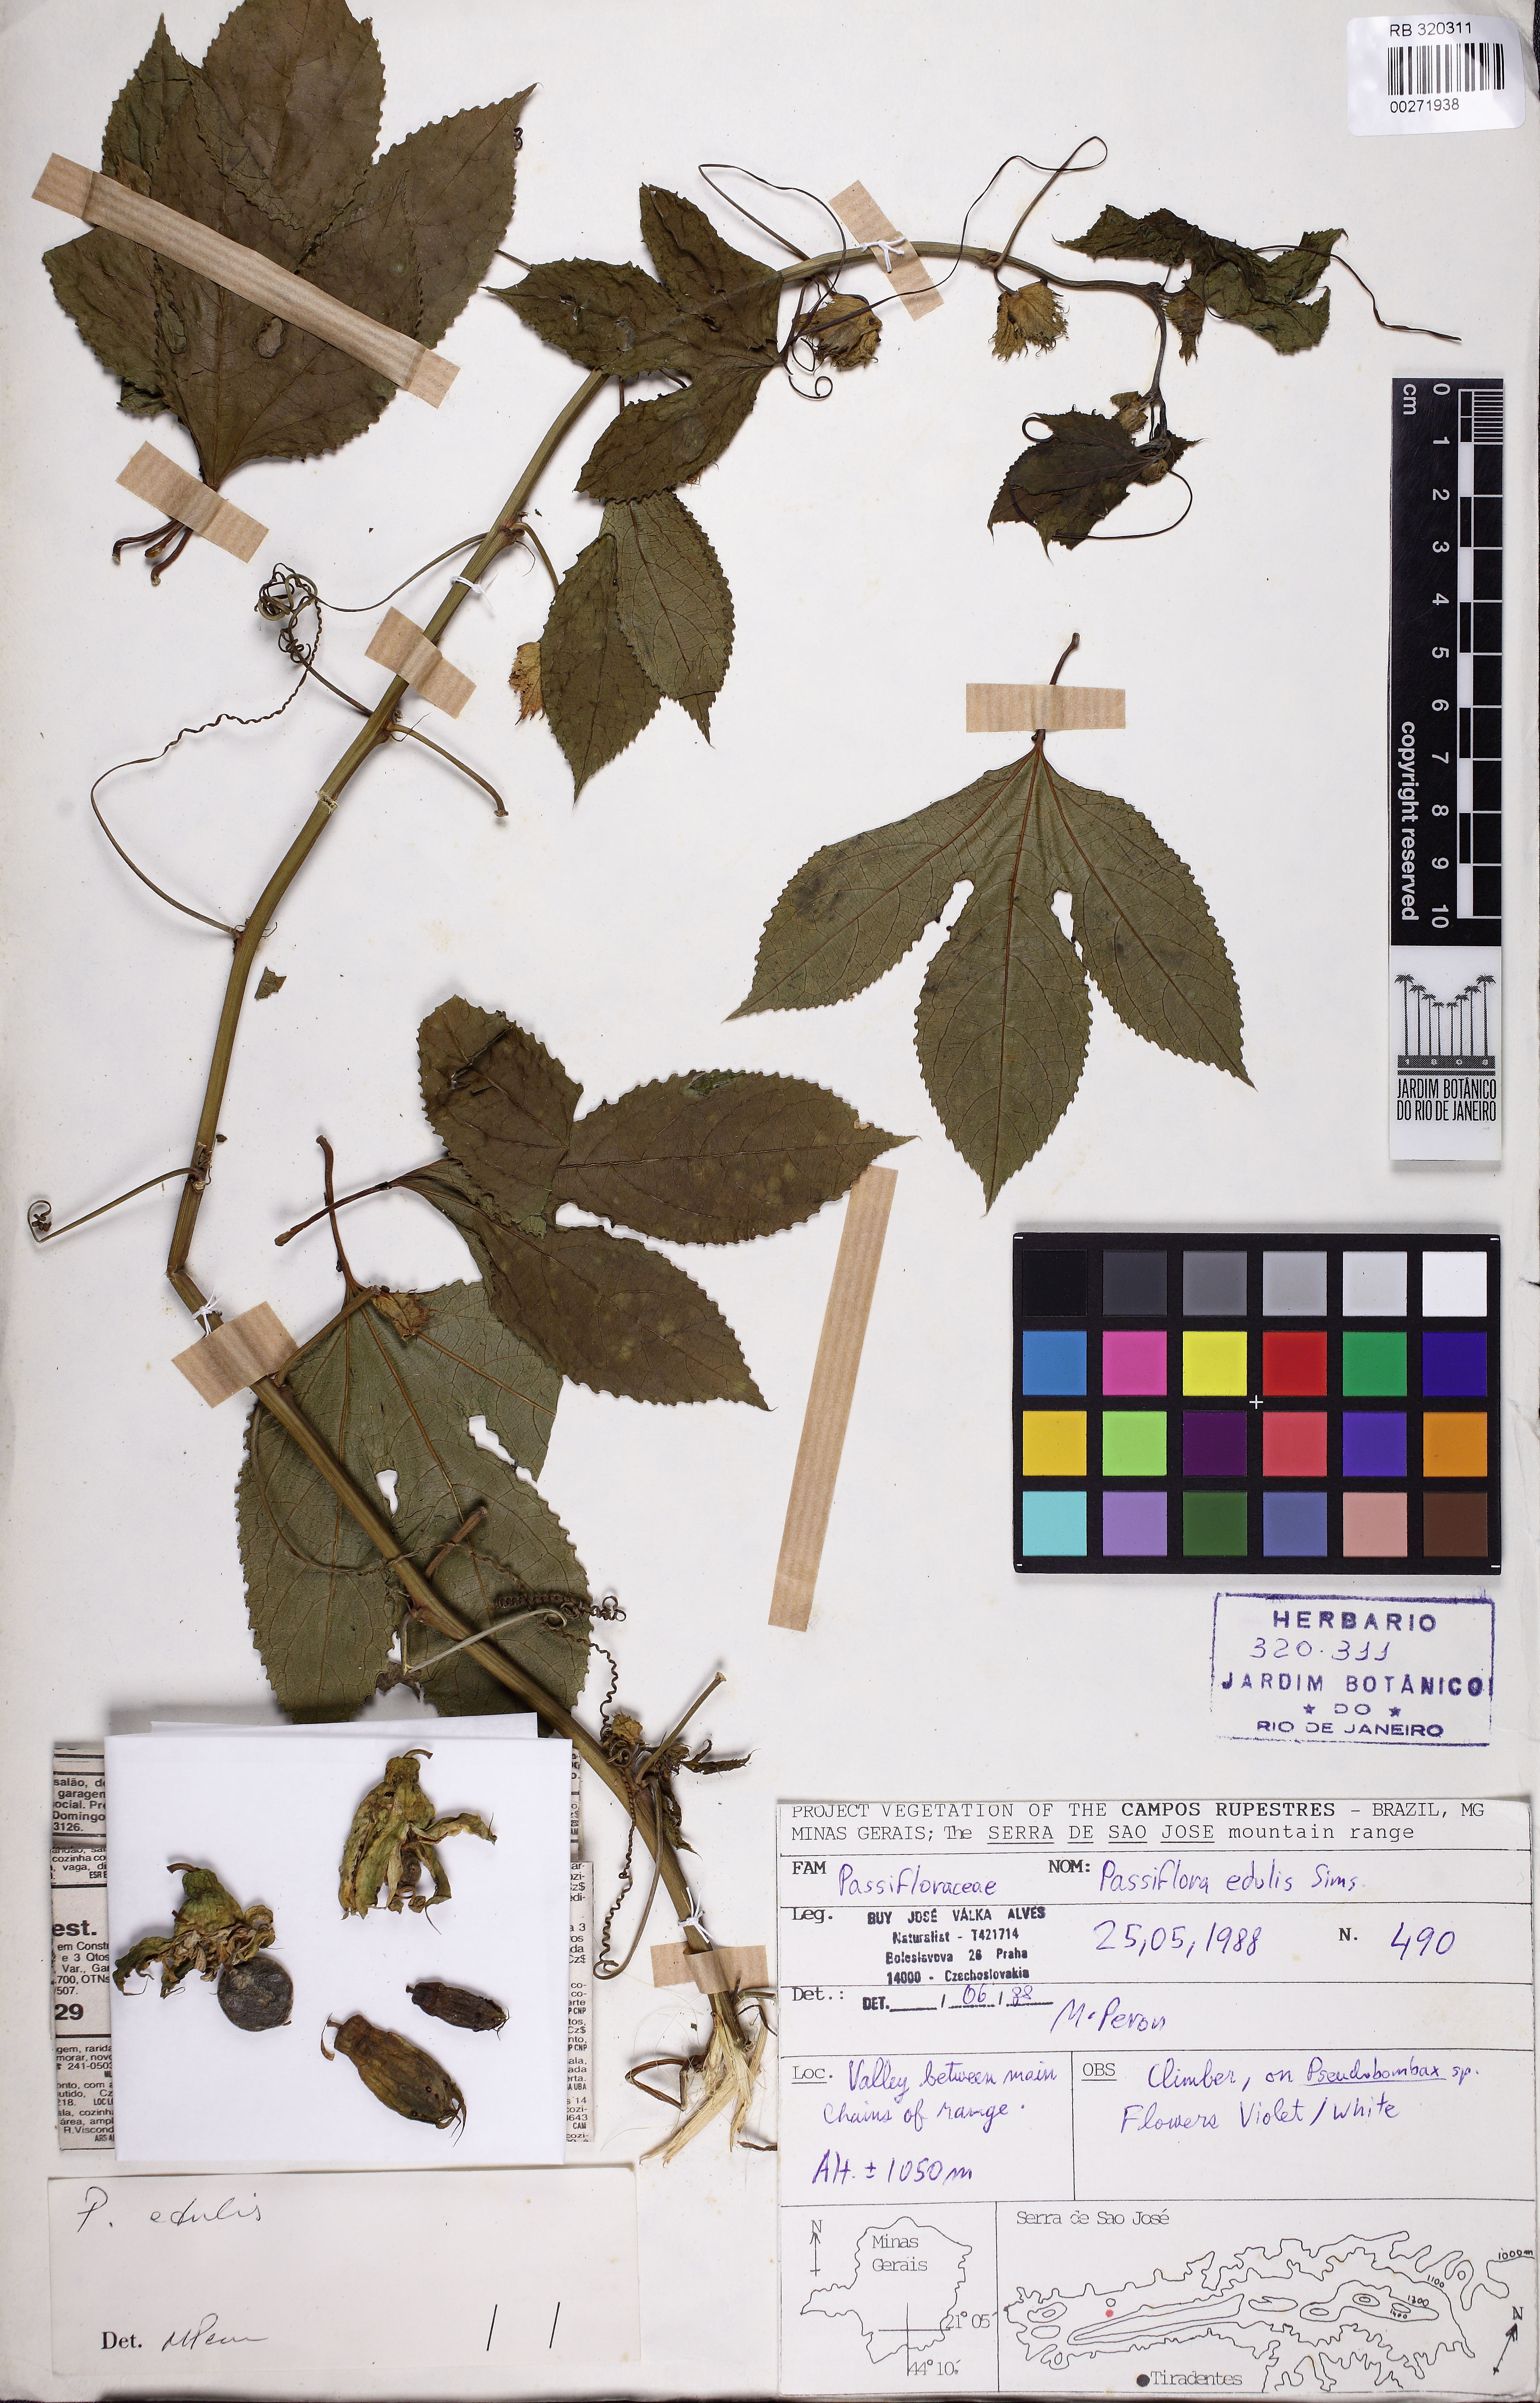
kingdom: Plantae
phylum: Tracheophyta
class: Magnoliopsida
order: Malpighiales
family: Passifloraceae
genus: Passiflora
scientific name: Passiflora edulis
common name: Purple granadilla
